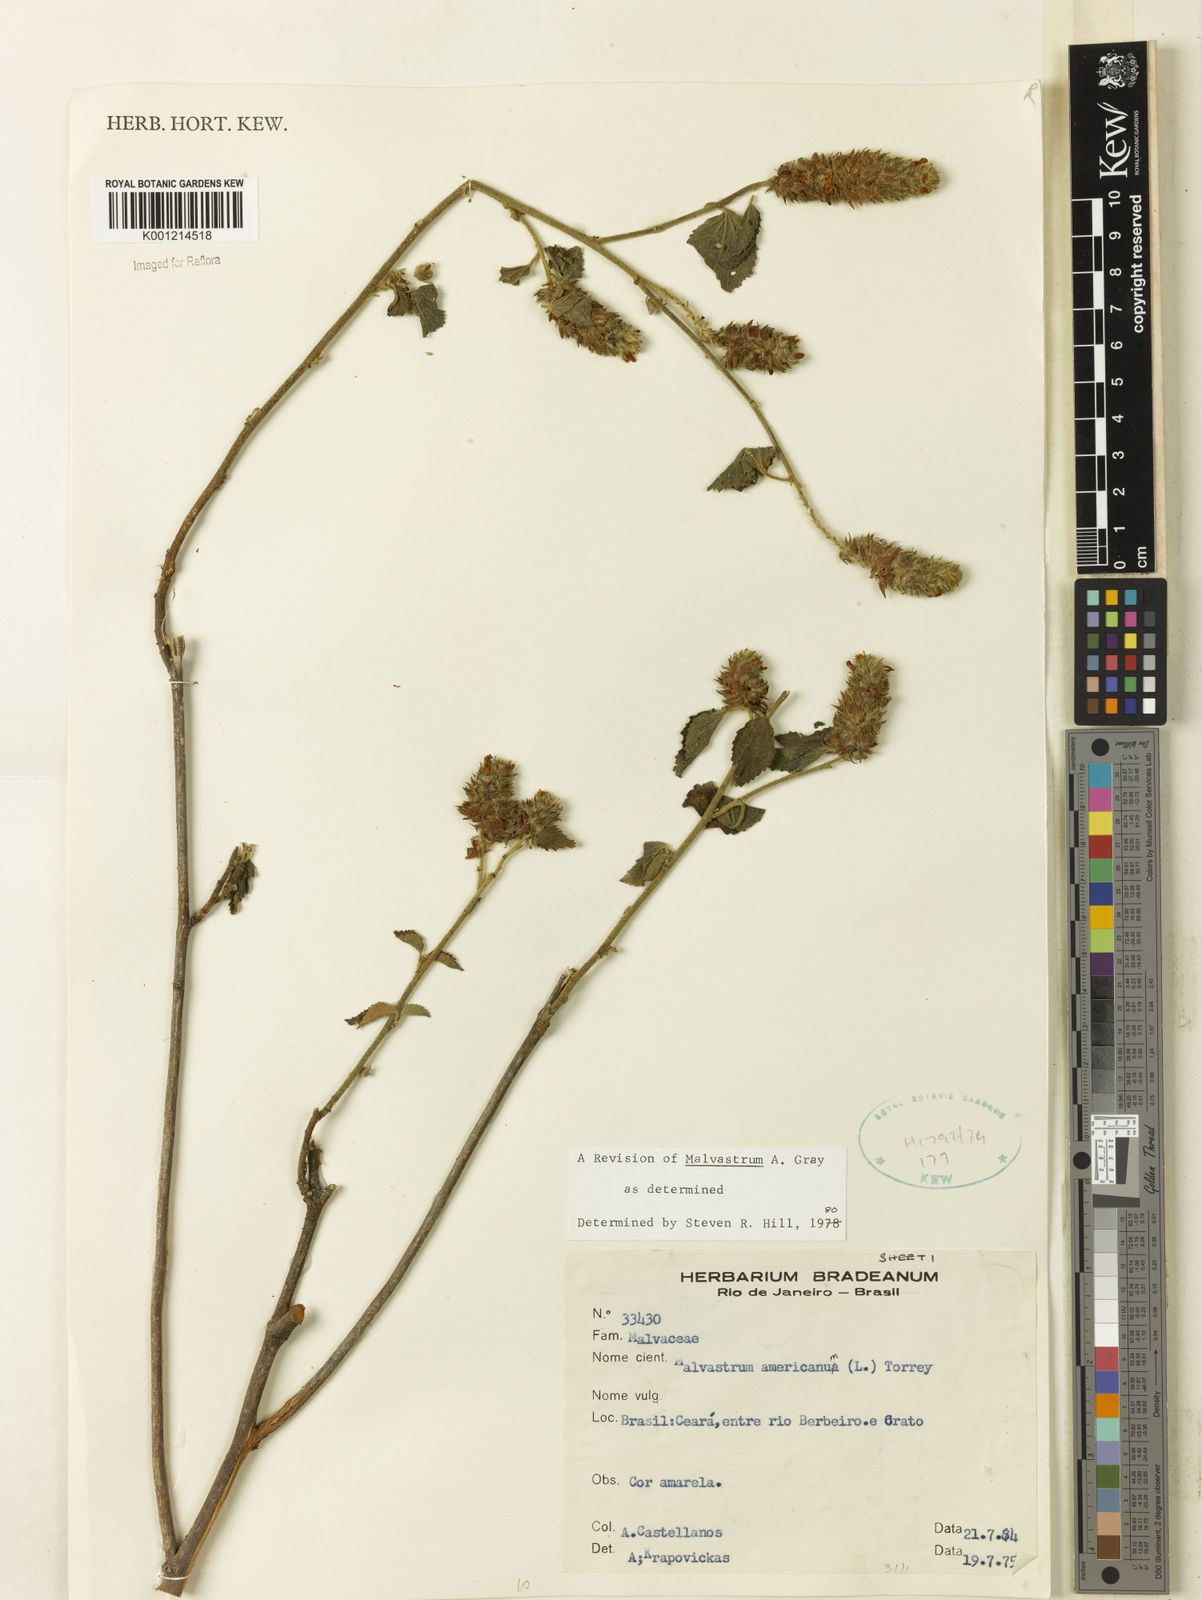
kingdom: Plantae
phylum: Tracheophyta
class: Magnoliopsida
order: Malvales
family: Malvaceae
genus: Malvastrum
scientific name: Malvastrum americanum
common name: Spiked malvastrum
